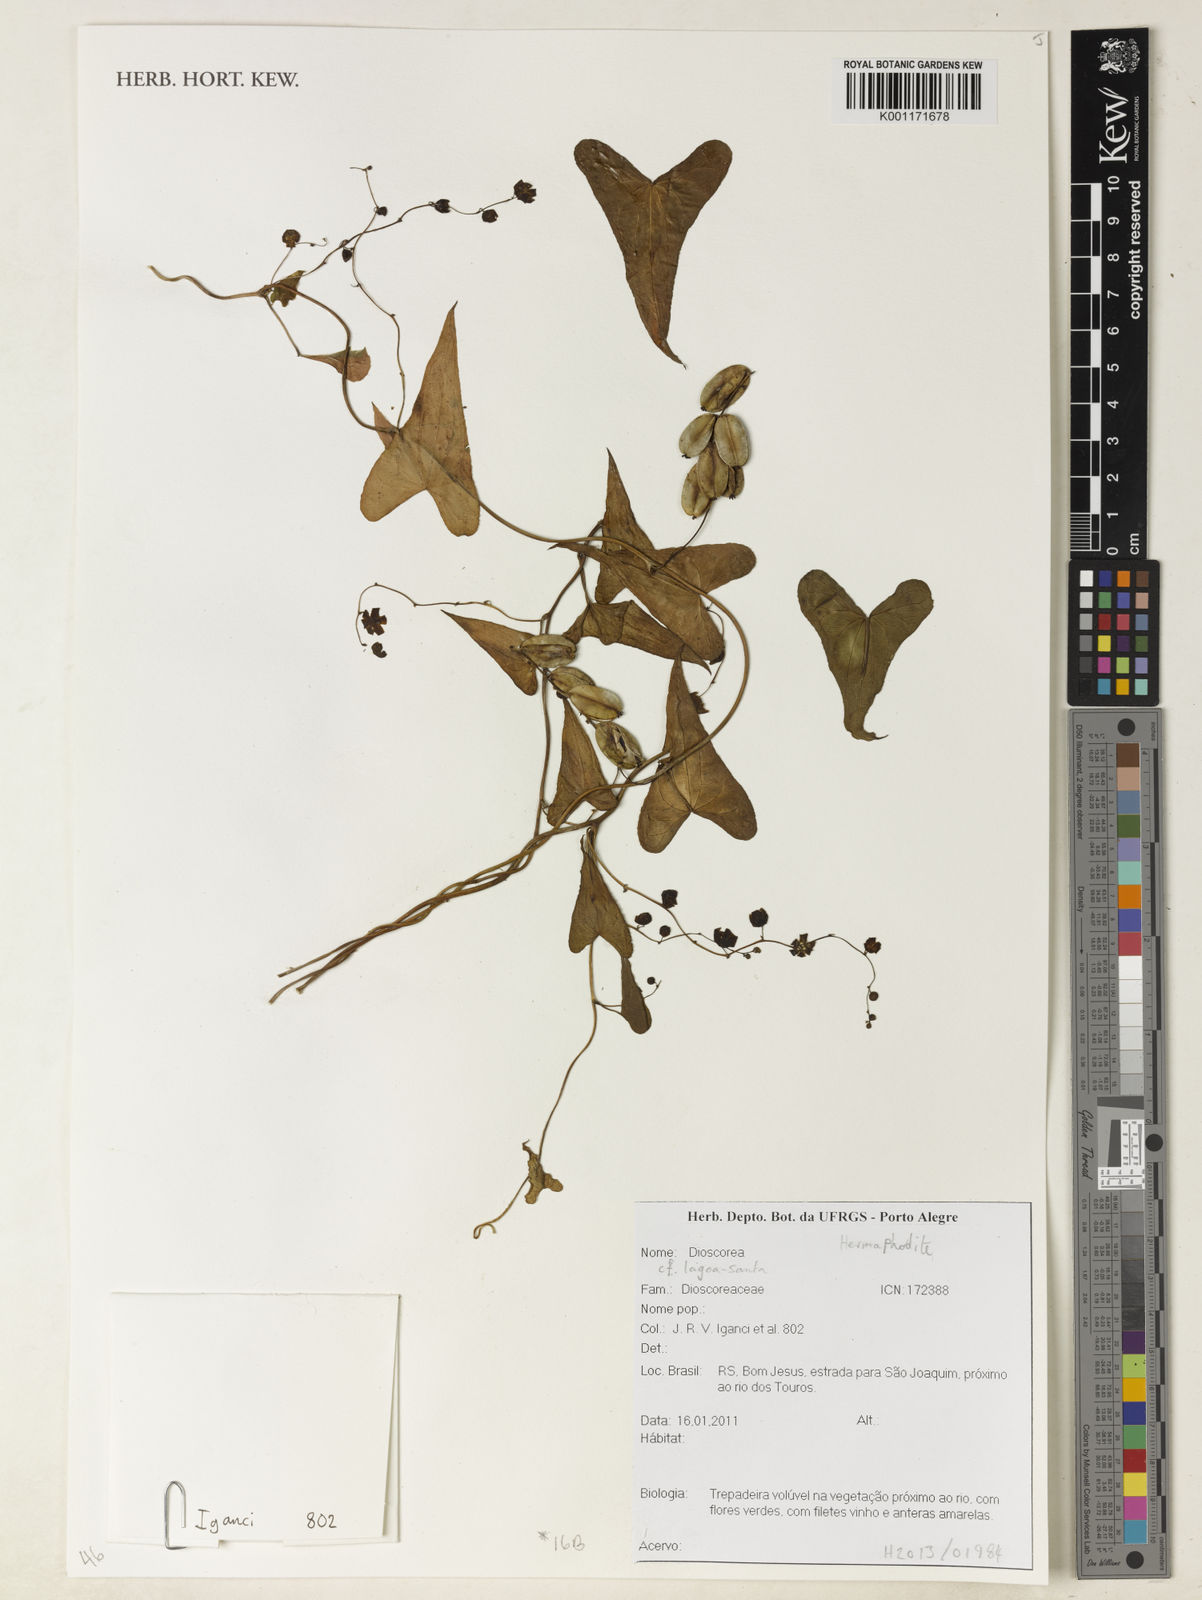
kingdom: Plantae
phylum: Tracheophyta
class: Liliopsida
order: Dioscoreales
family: Dioscoreaceae
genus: Dioscorea
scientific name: Dioscorea cienegensis
